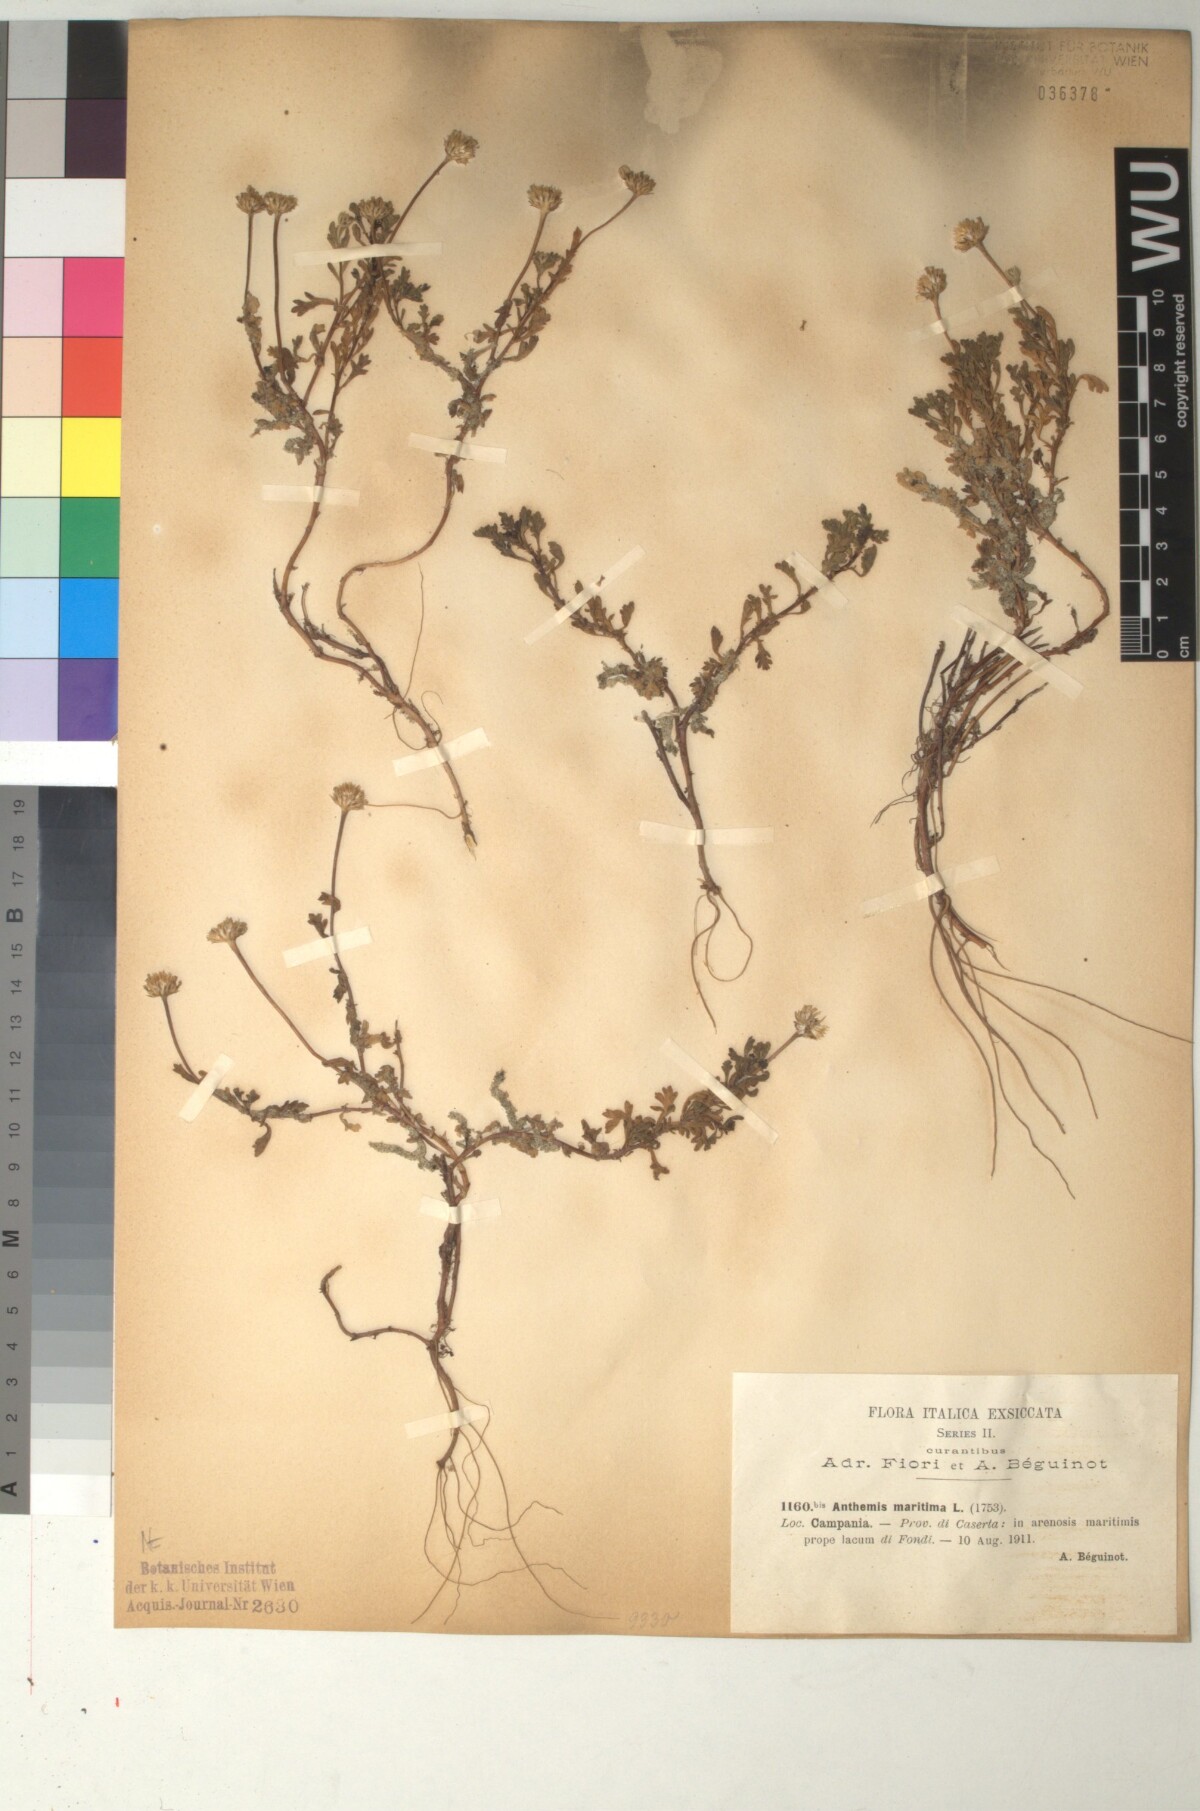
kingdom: Plantae
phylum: Tracheophyta
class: Magnoliopsida
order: Asterales
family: Asteraceae
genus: Anthemis
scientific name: Anthemis maritima
